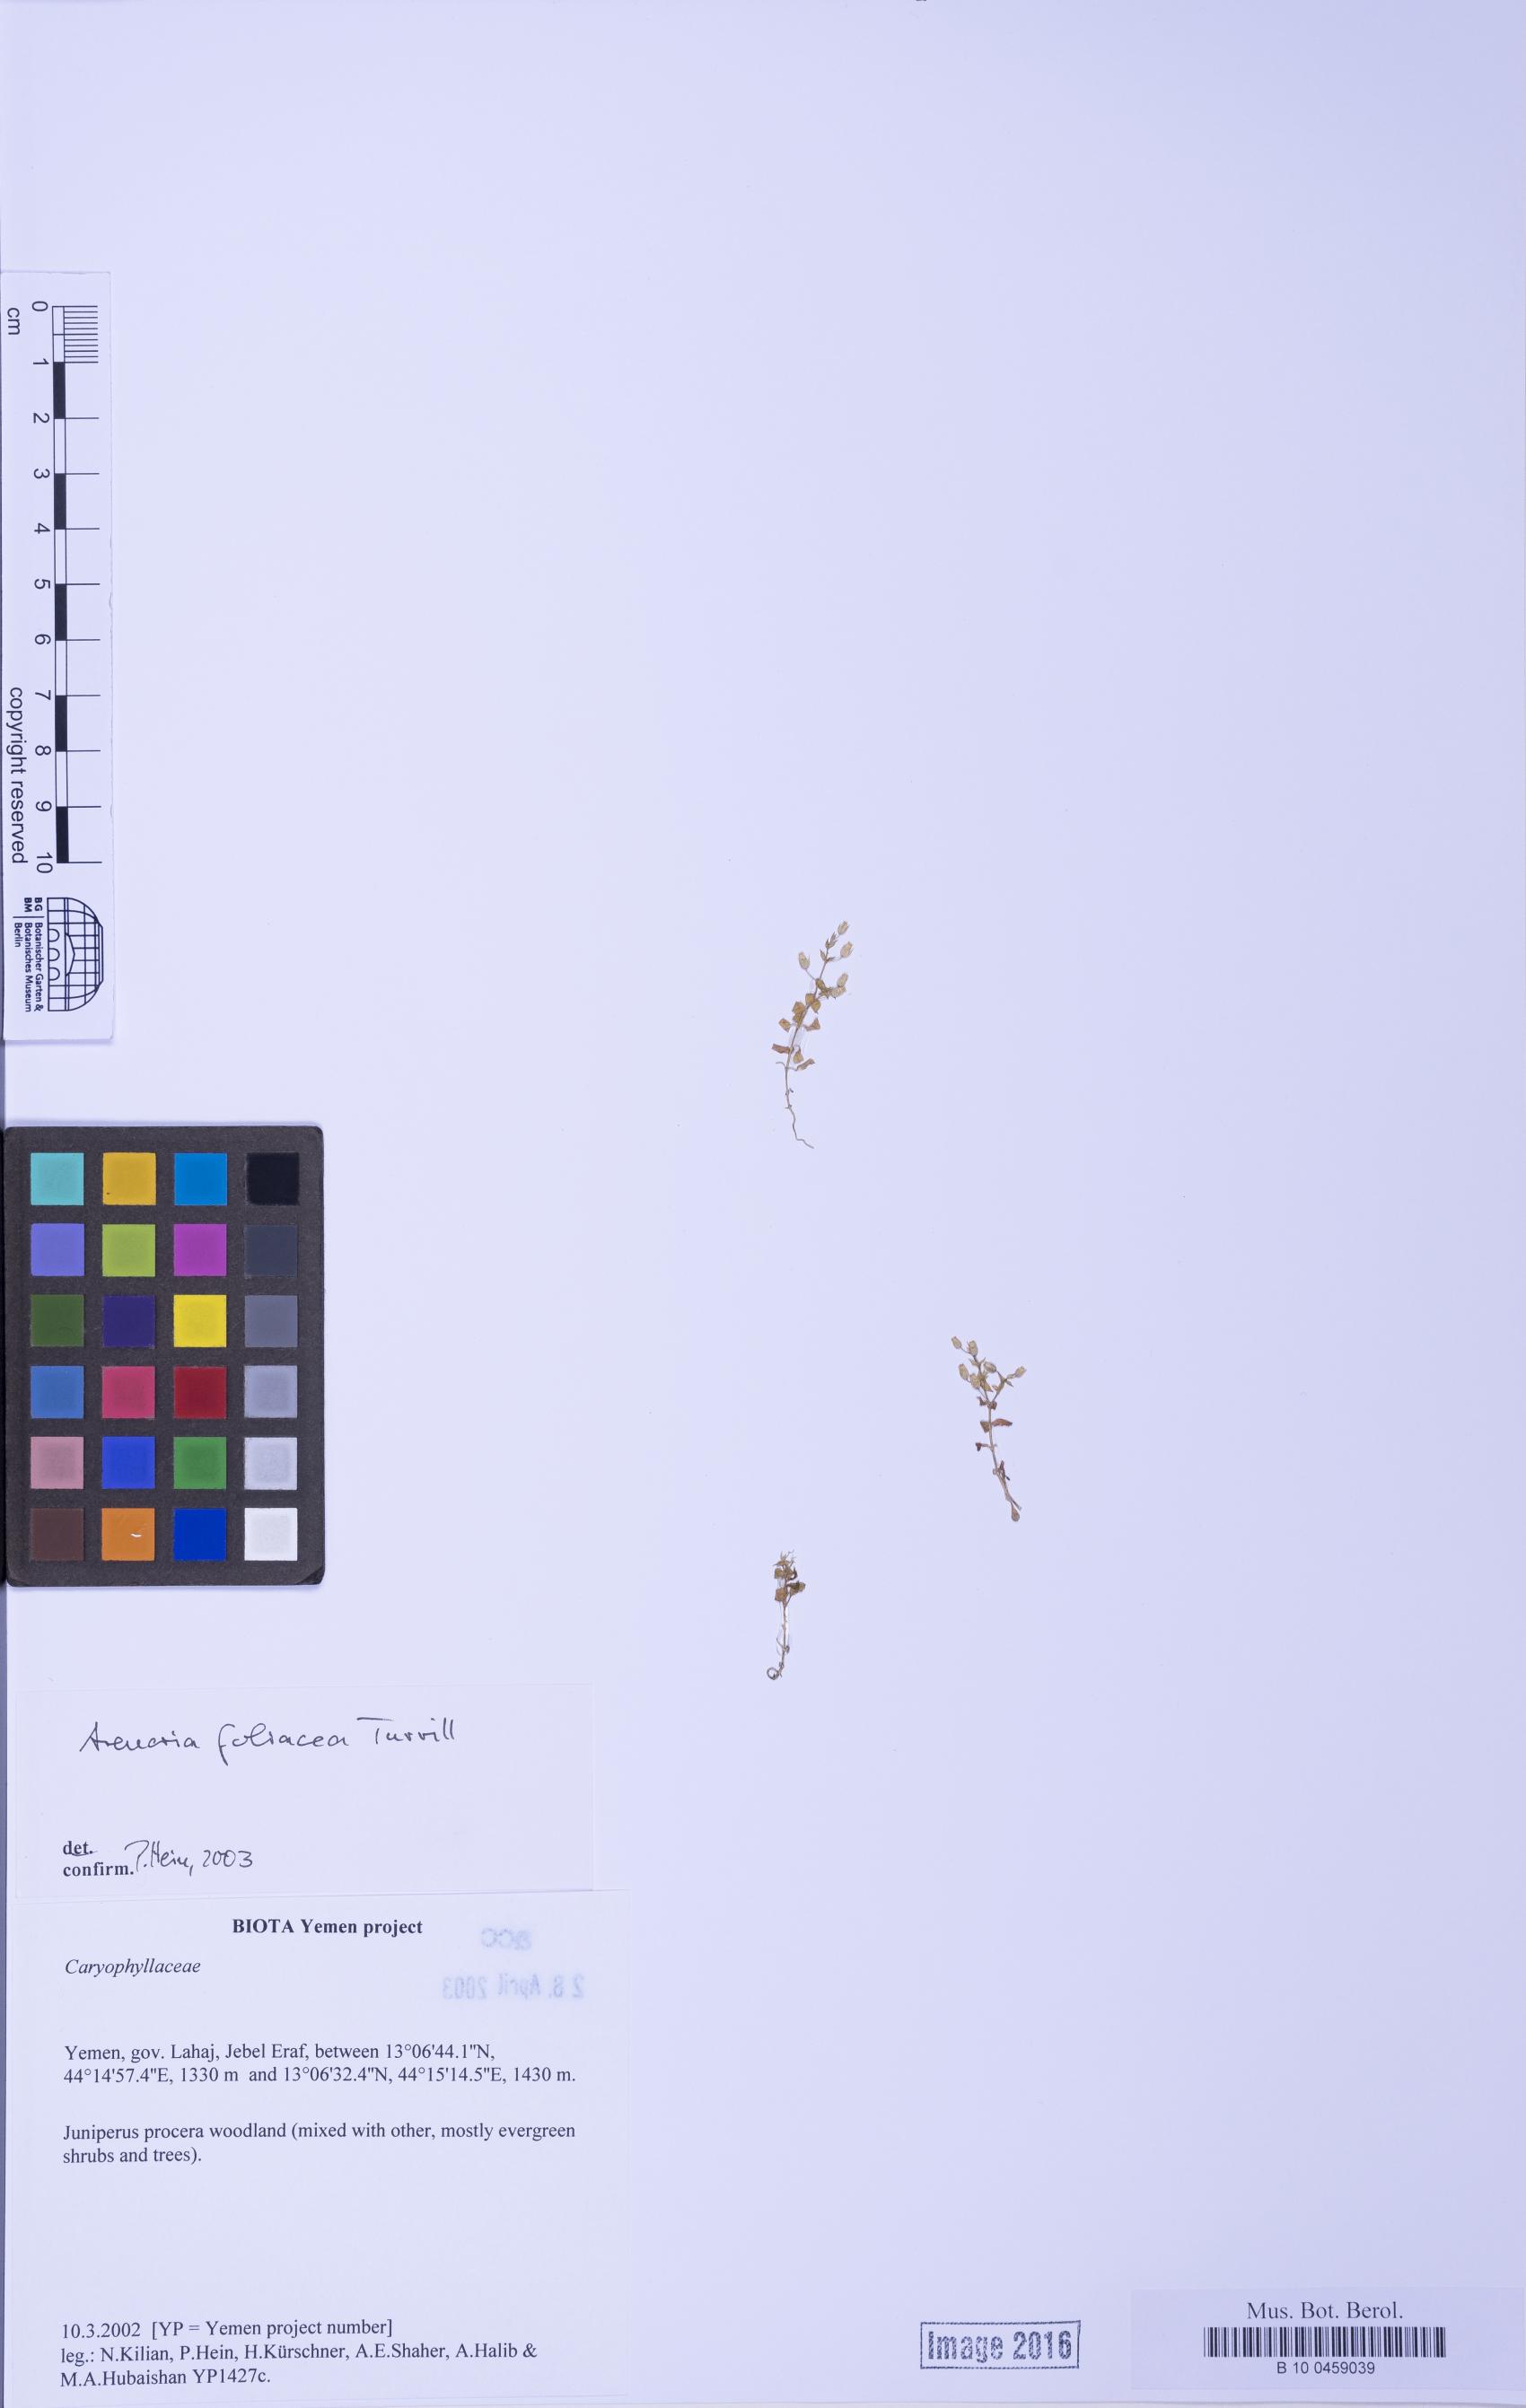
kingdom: Plantae
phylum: Tracheophyta
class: Magnoliopsida
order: Caryophyllales
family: Caryophyllaceae
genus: Arenaria
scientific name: Arenaria leptoclados
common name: Thyme-leaved sandwort
